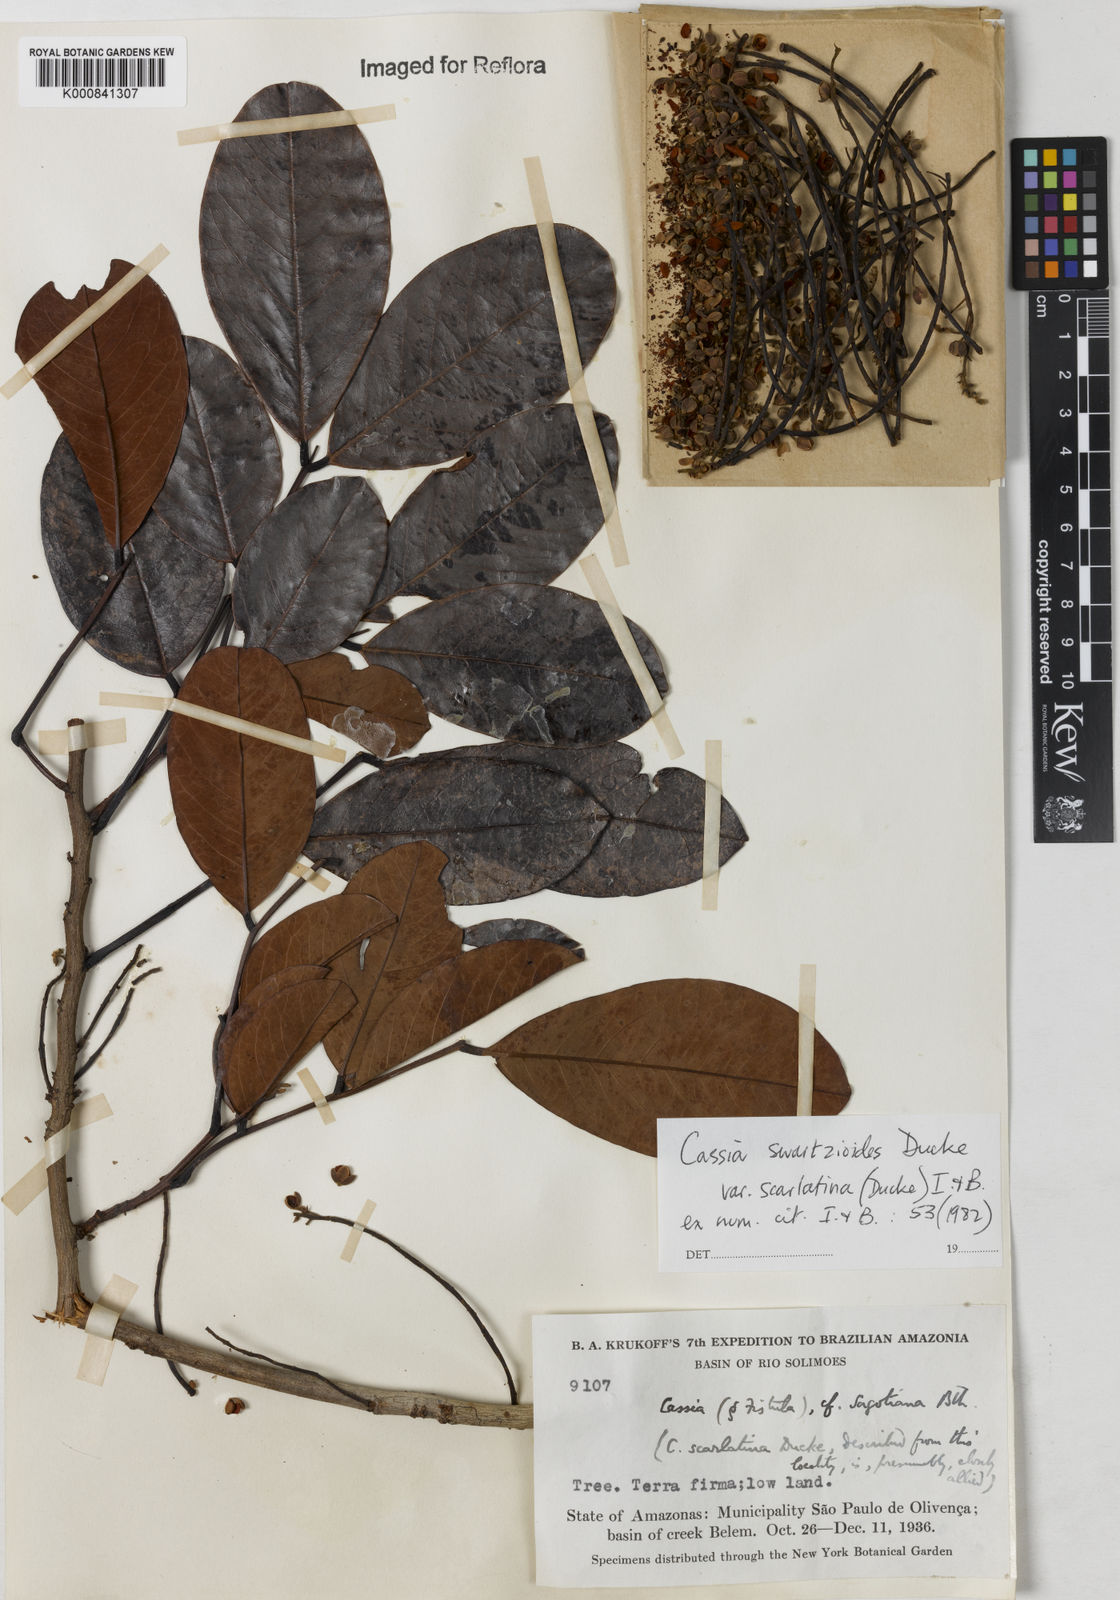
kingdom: Plantae
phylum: Tracheophyta
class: Magnoliopsida
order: Fabales
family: Fabaceae
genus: Cassia
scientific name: Cassia swartzioides
